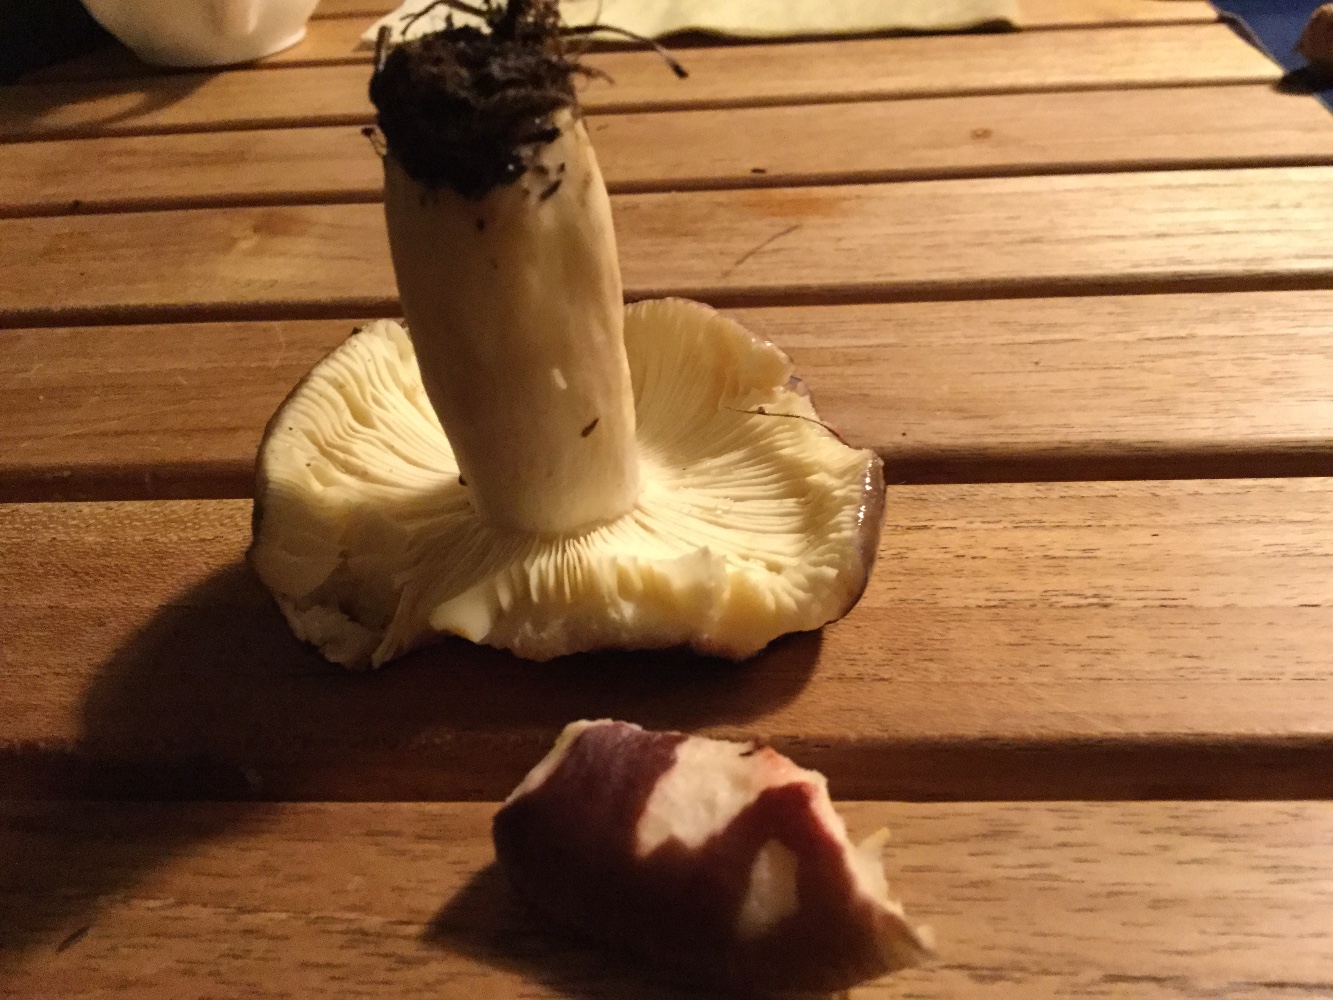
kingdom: Fungi
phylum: Basidiomycota
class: Agaricomycetes
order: Russulales
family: Russulaceae
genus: Russula
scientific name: Russula sardonia
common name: citronbladet skørhat
